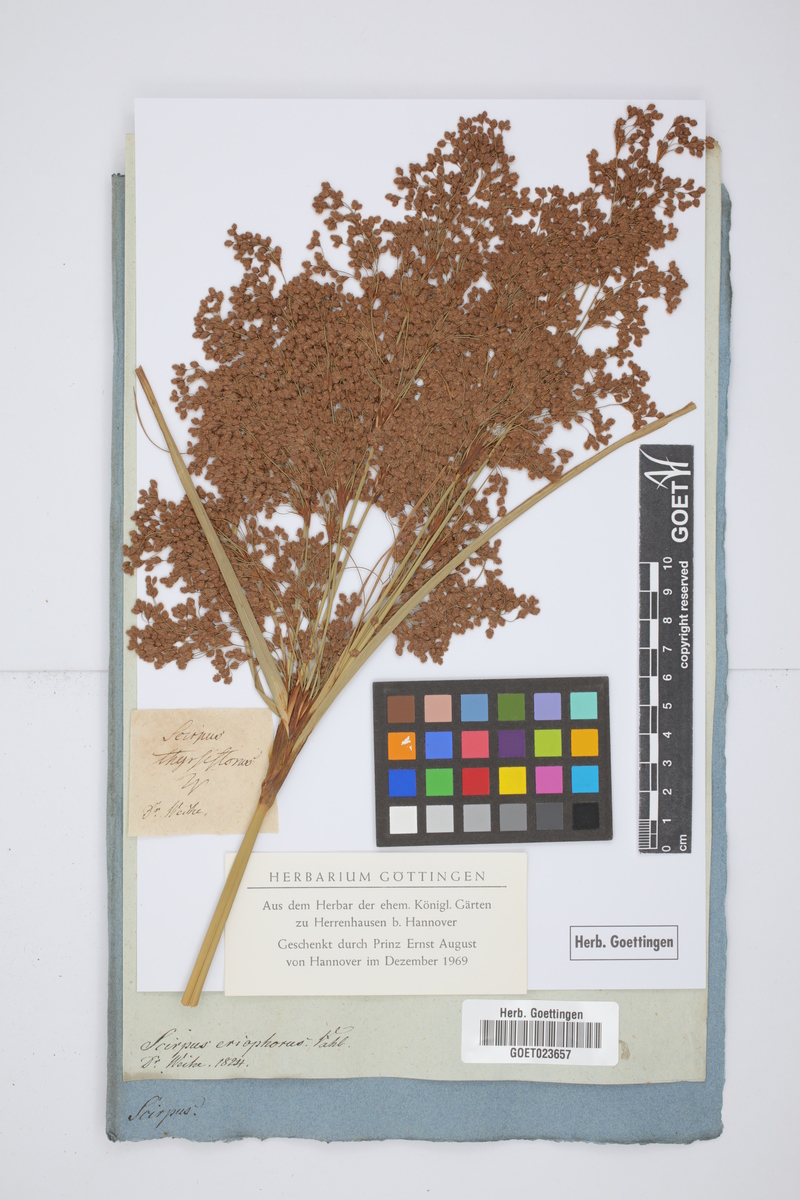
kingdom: Plantae
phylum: Tracheophyta
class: Liliopsida
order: Poales
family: Cyperaceae
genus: Scirpus
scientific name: Scirpus cyperinus
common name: Black-sheathed bulrush
